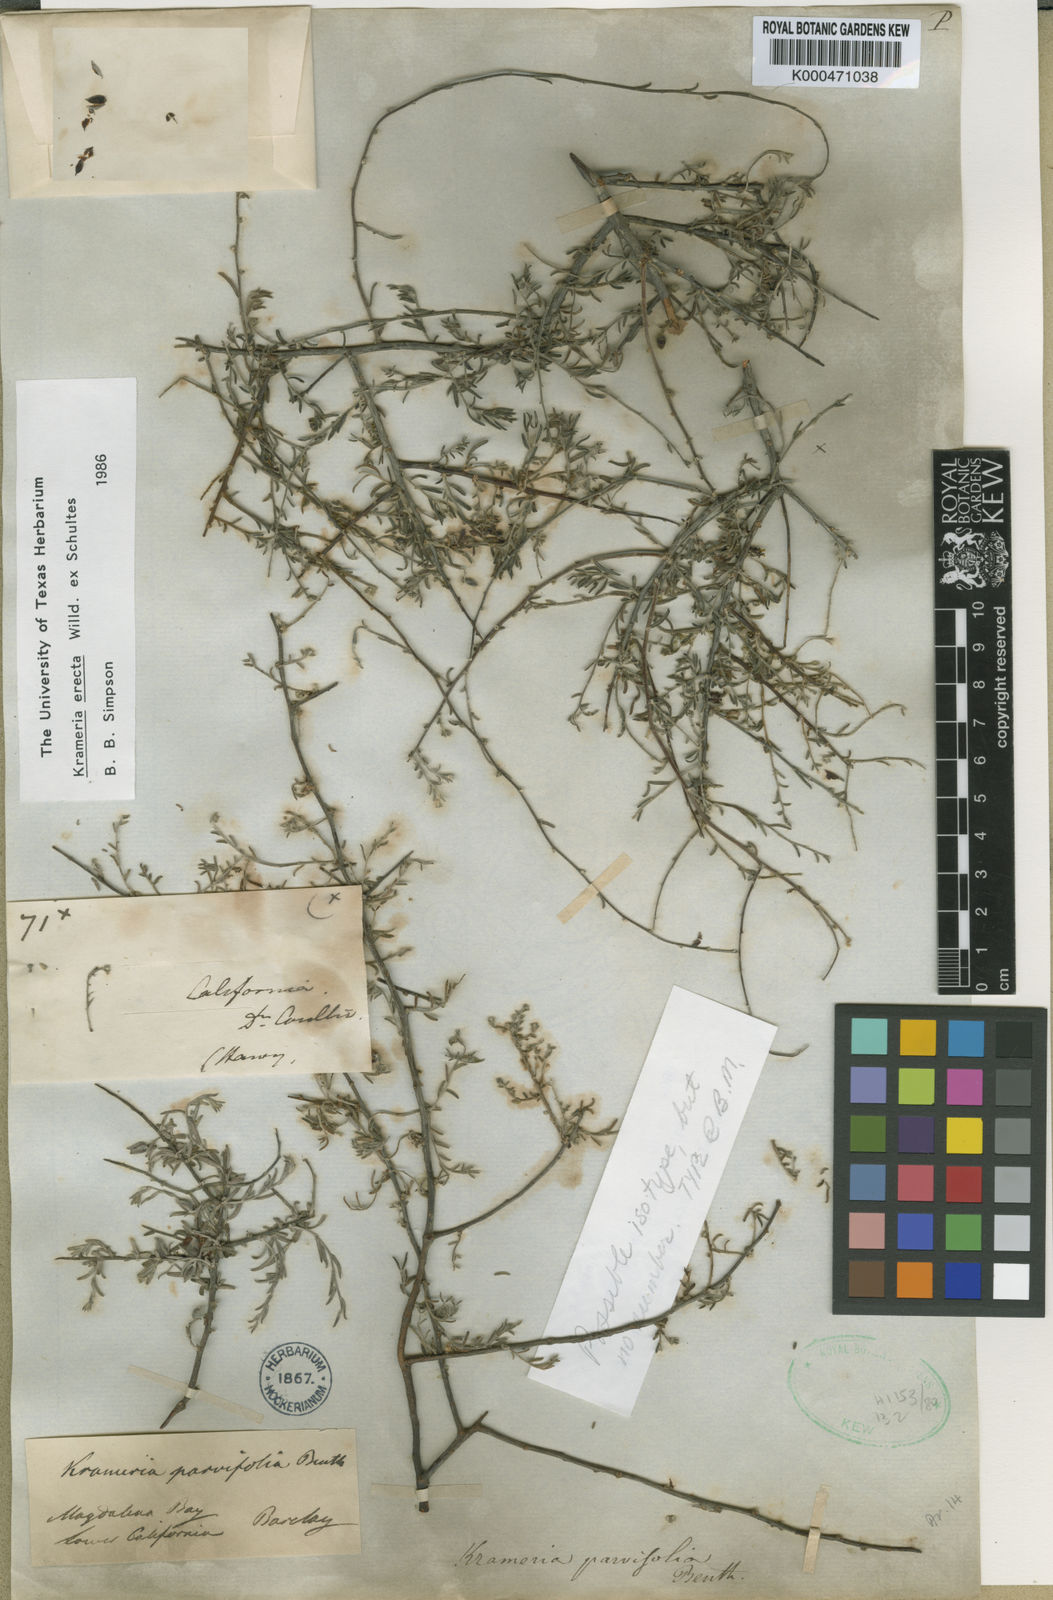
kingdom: Plantae
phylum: Tracheophyta
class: Magnoliopsida
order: Zygophyllales
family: Krameriaceae
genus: Krameria
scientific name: Krameria erecta
